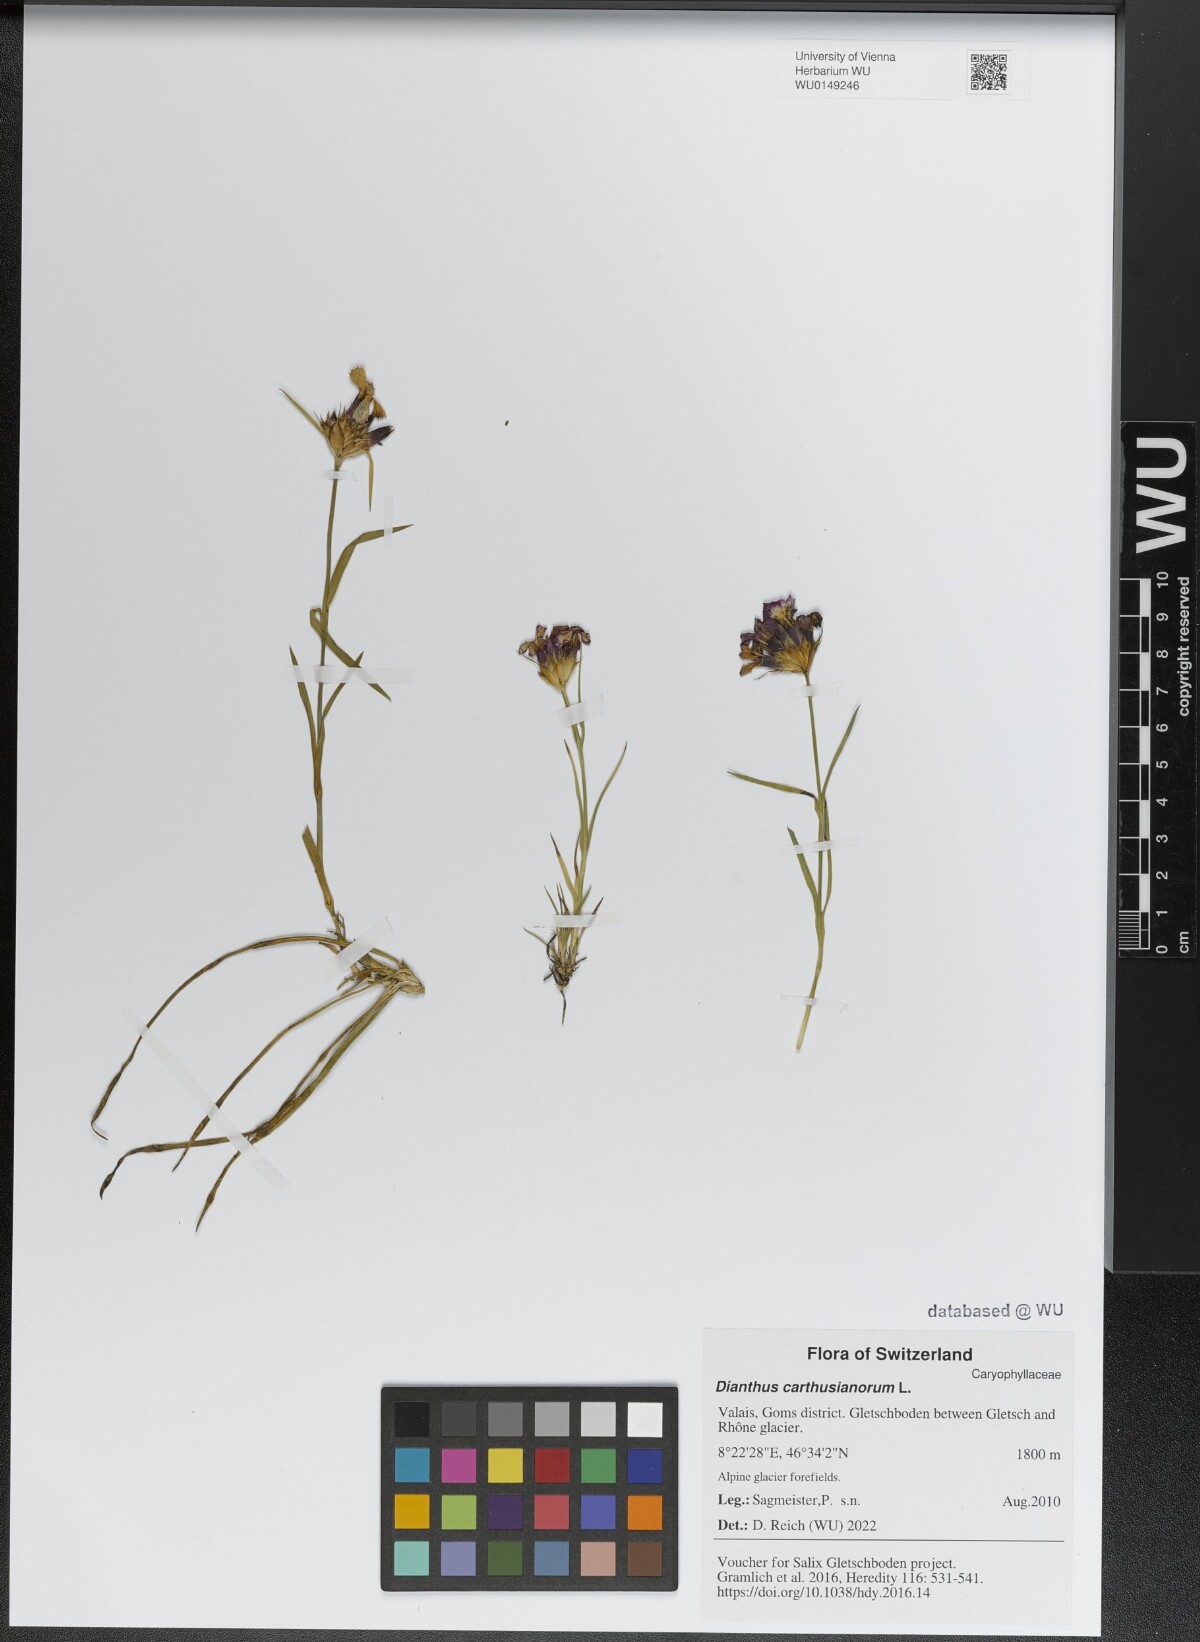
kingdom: Plantae
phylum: Tracheophyta
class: Magnoliopsida
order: Caryophyllales
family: Caryophyllaceae
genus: Dianthus
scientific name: Dianthus carthusianorum
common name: Carthusian pink
